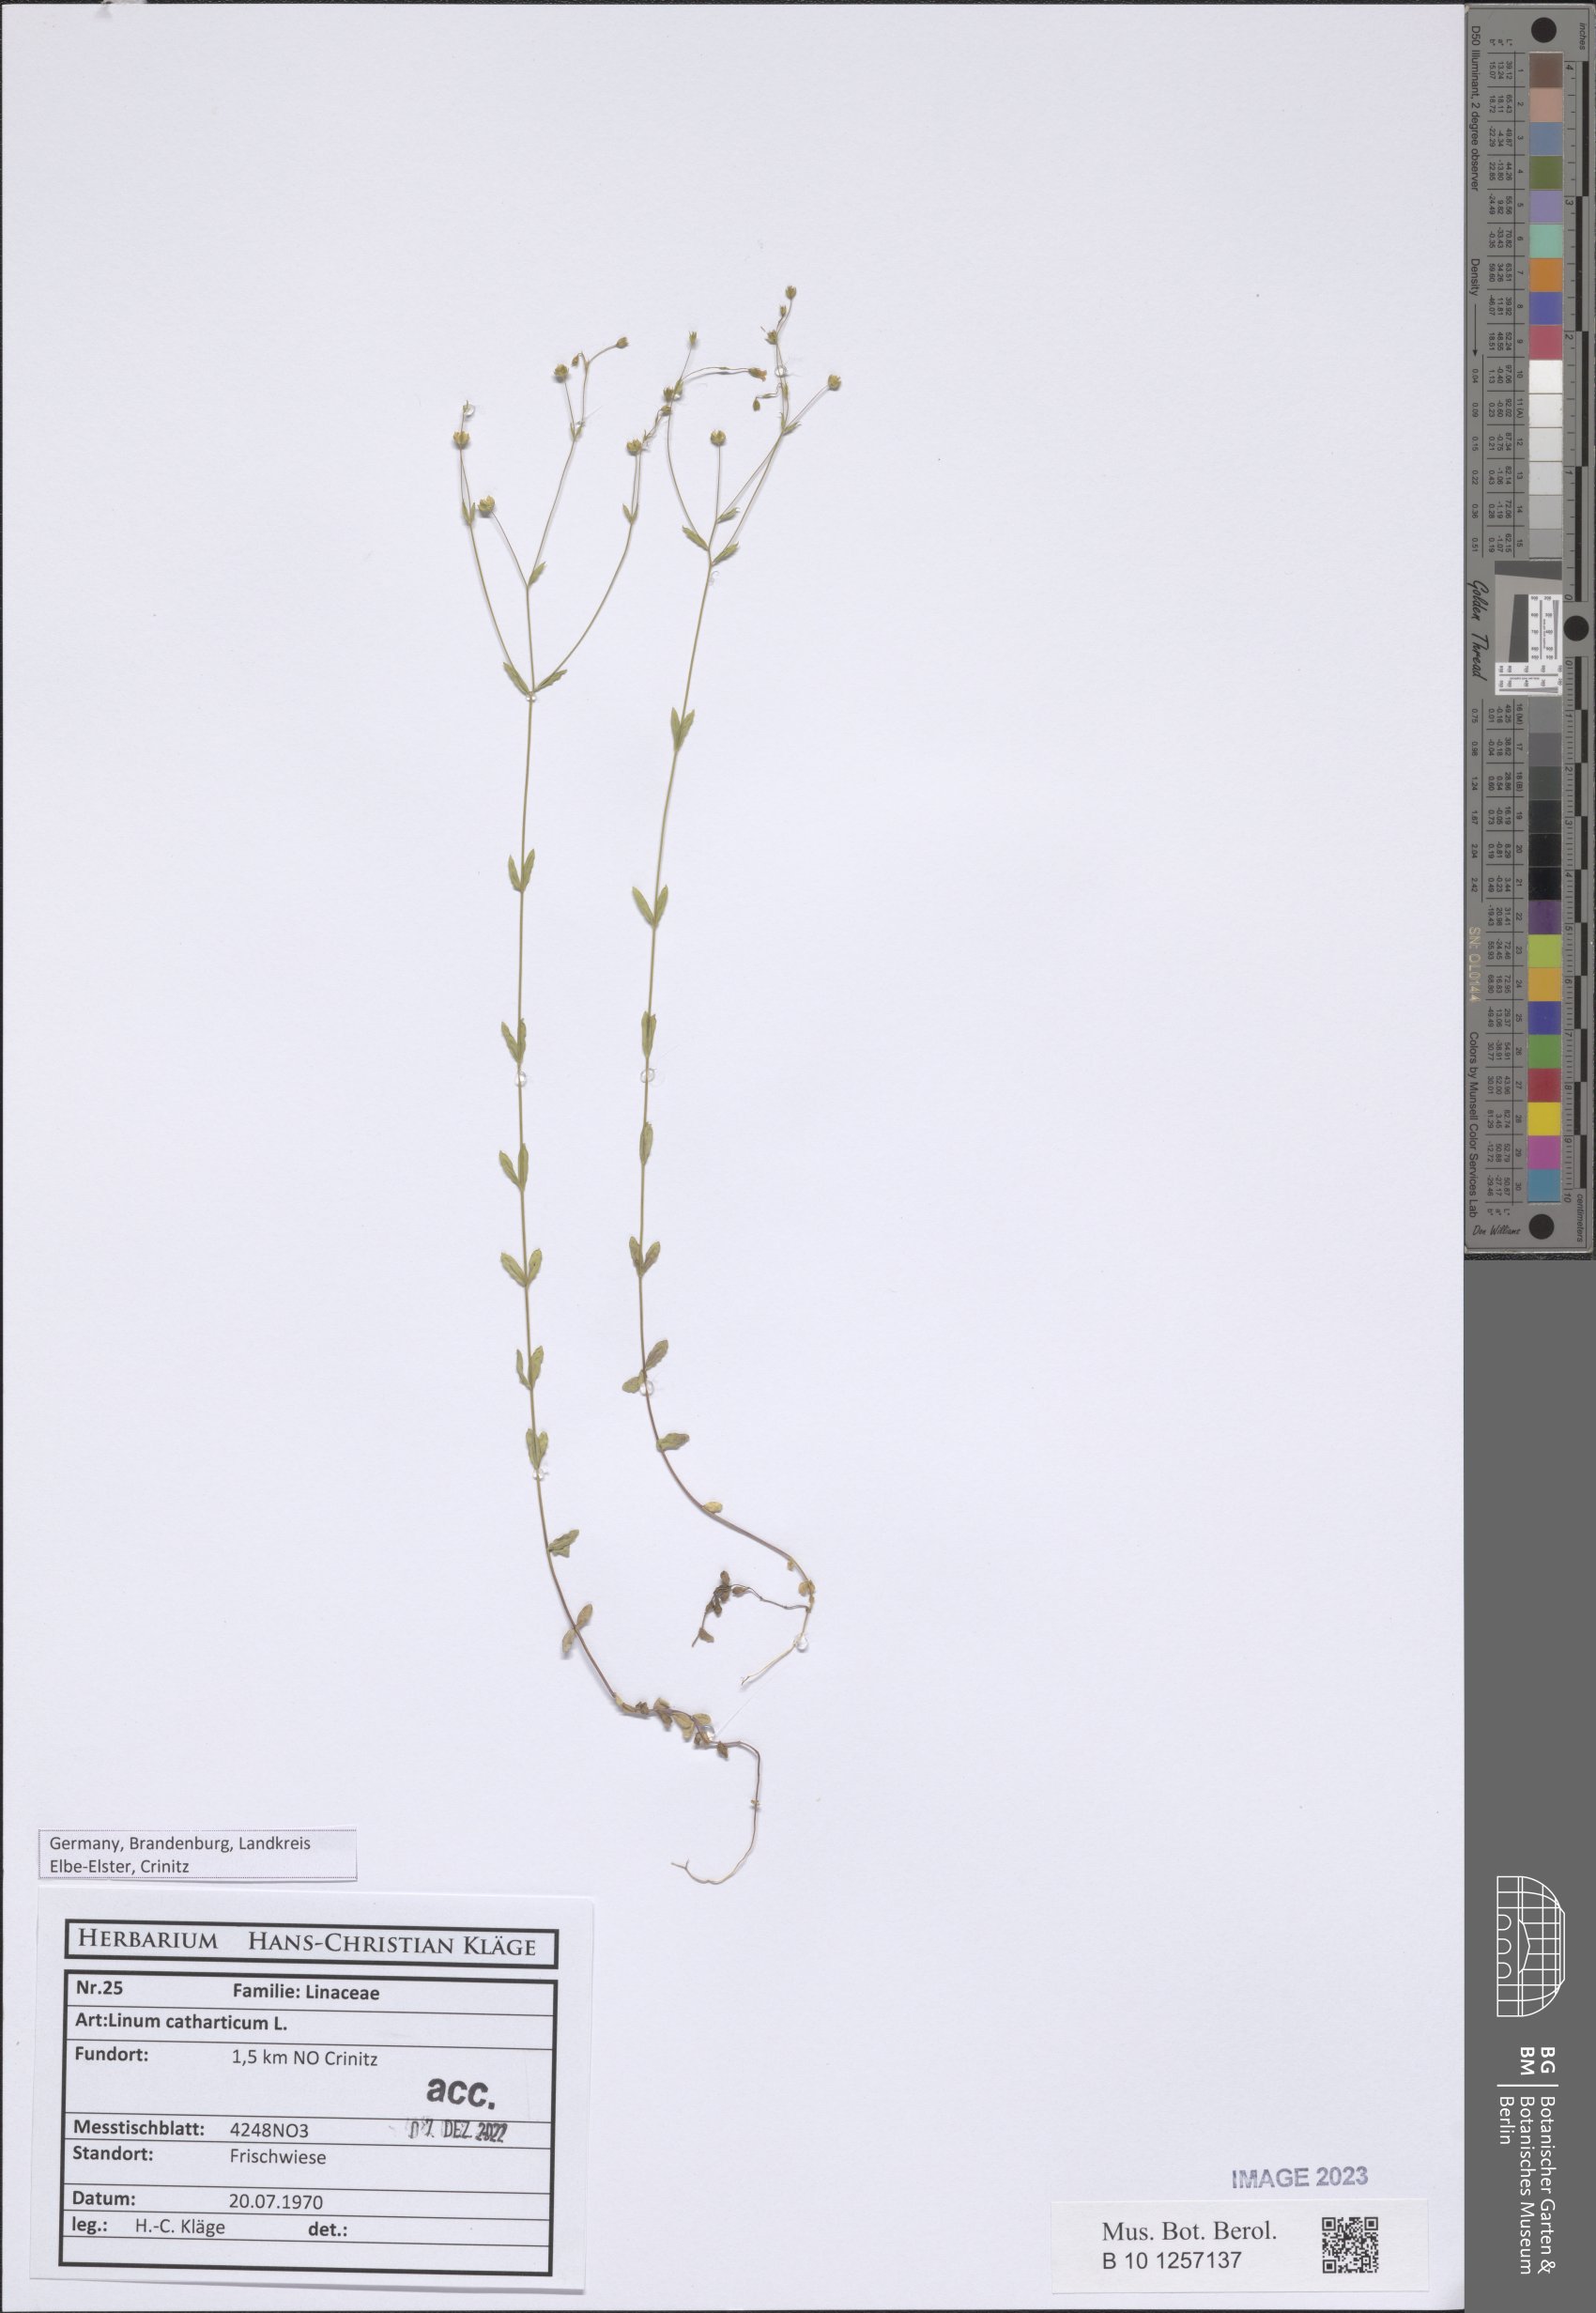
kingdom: Plantae
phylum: Tracheophyta
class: Magnoliopsida
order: Malpighiales
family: Linaceae
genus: Linum
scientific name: Linum catharticum
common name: Fairy flax
